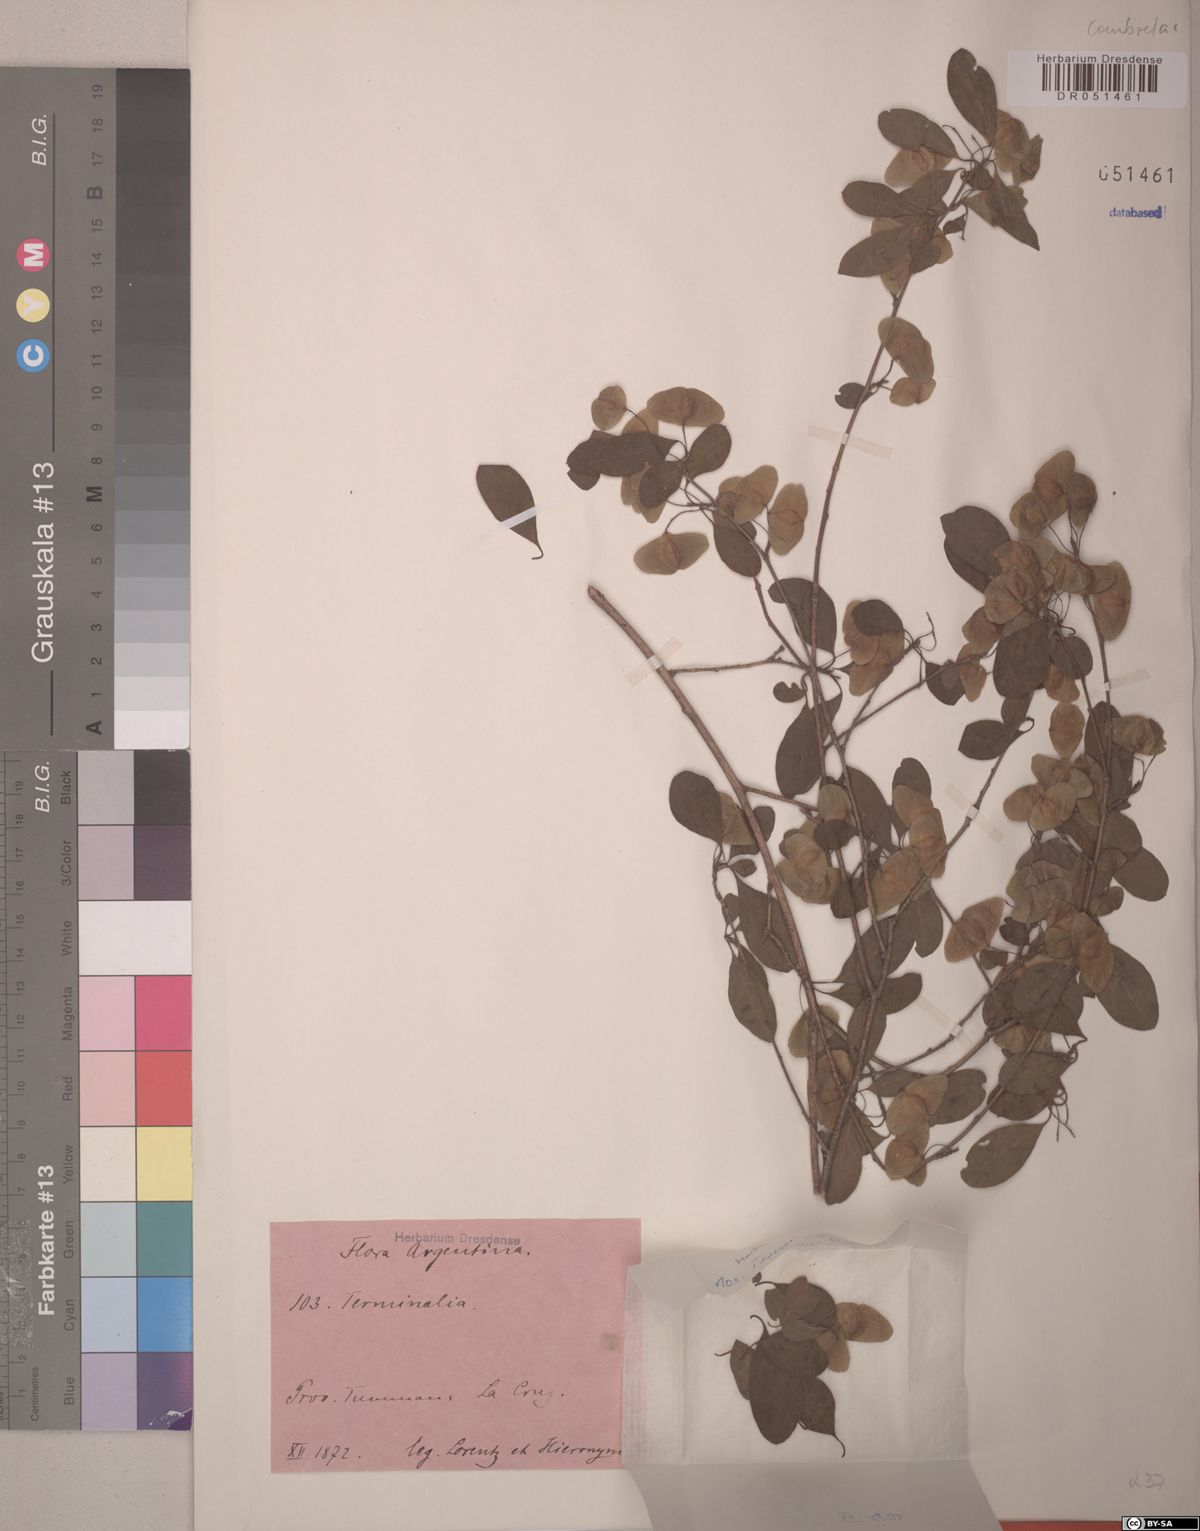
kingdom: Plantae
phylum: Tracheophyta
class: Magnoliopsida
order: Myrtales
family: Combretaceae
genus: Terminalia
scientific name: Terminalia triflora
